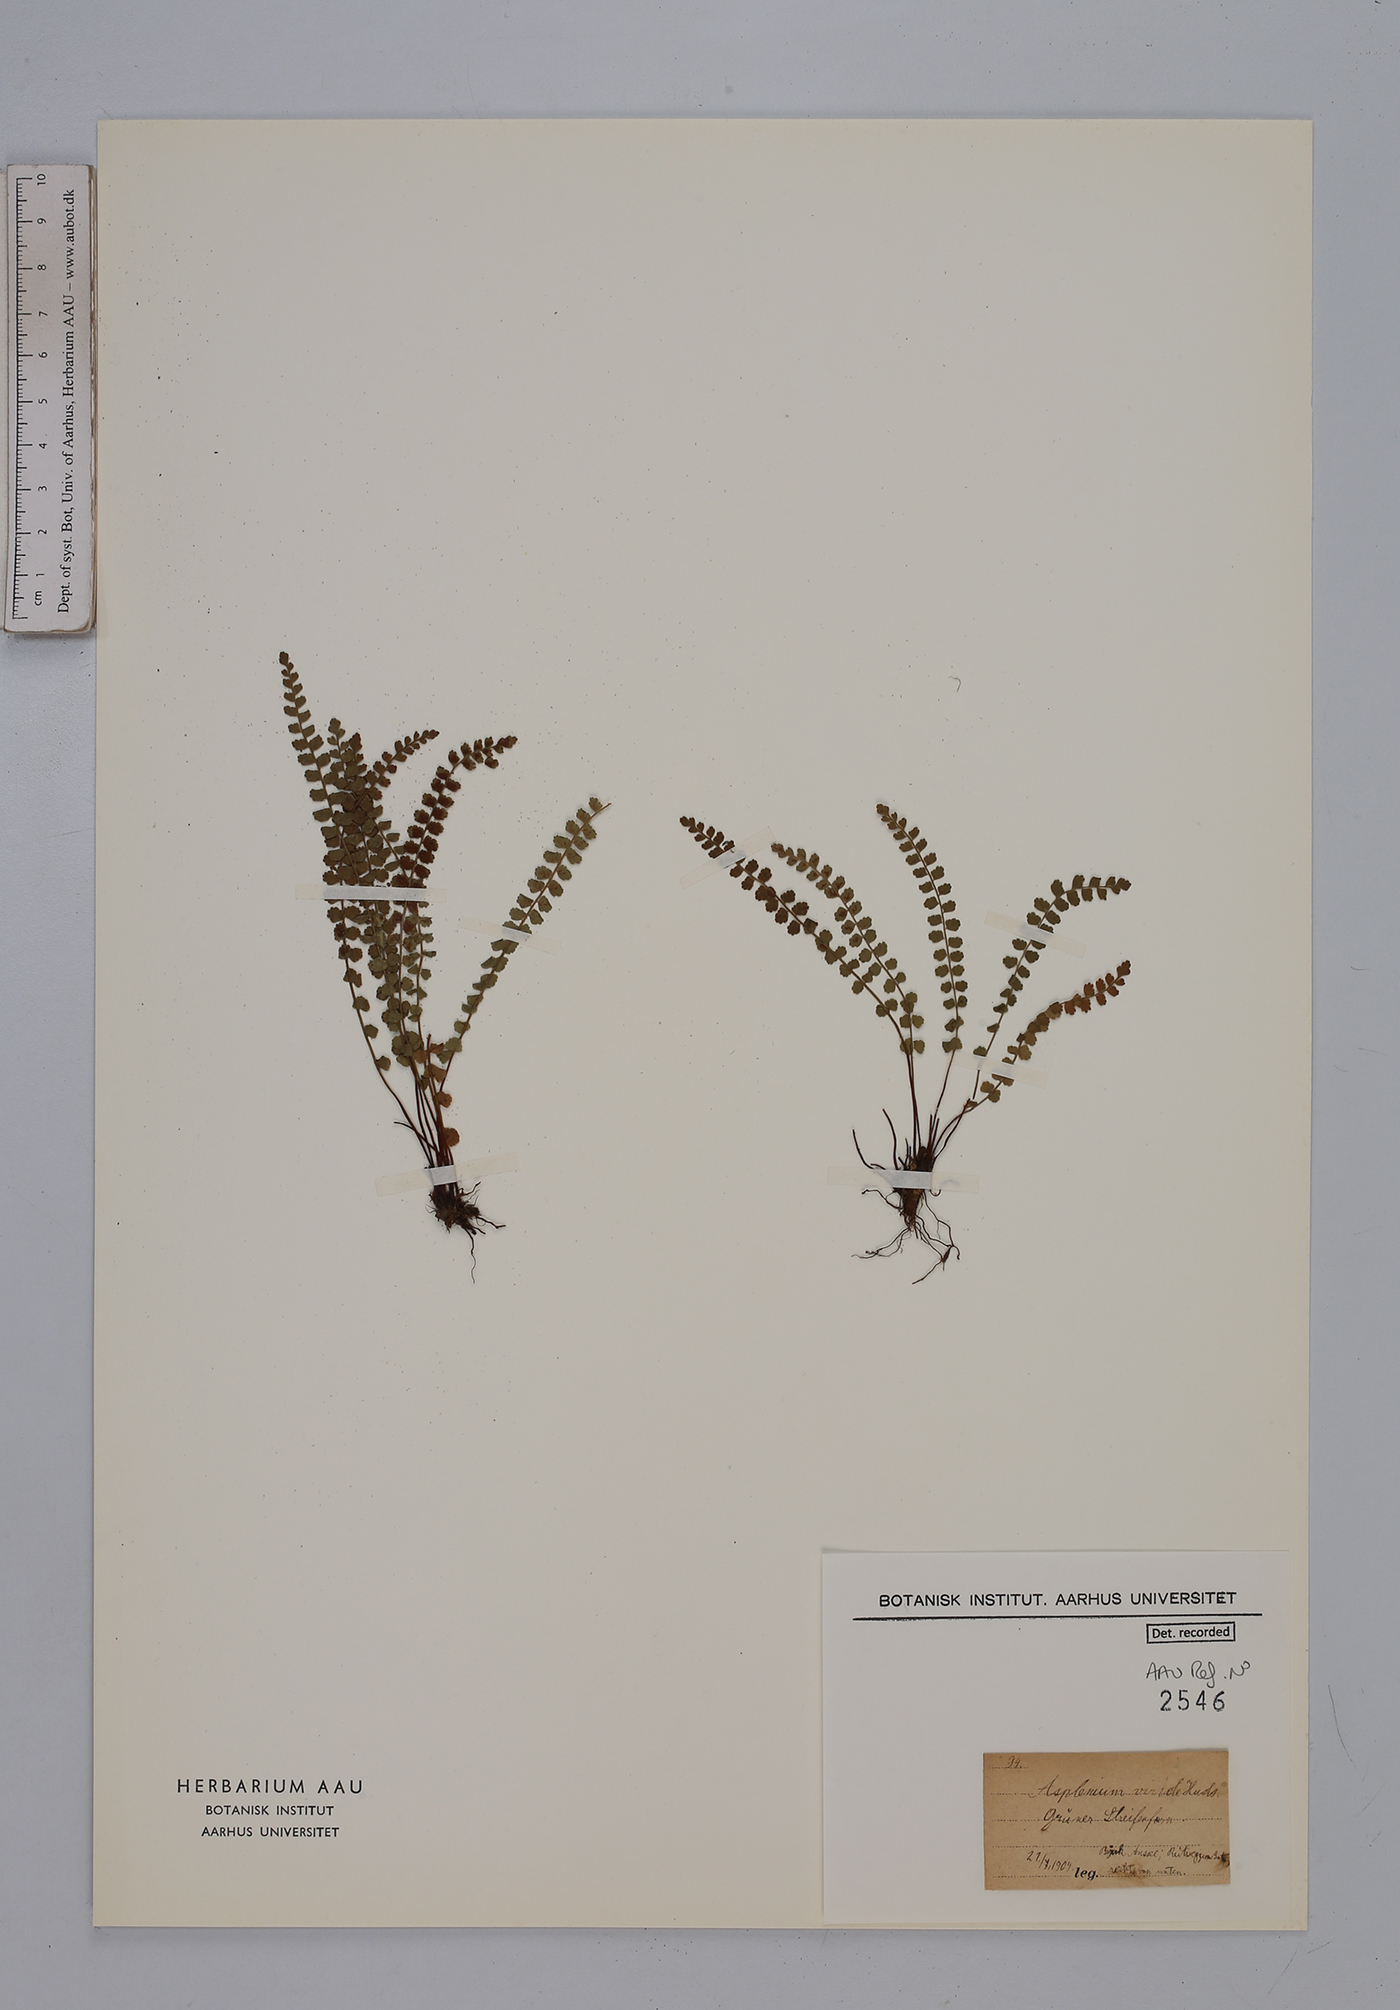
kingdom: Plantae
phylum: Tracheophyta
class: Polypodiopsida
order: Polypodiales
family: Aspleniaceae
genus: Asplenium
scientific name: Asplenium viride
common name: Green spleenwort
